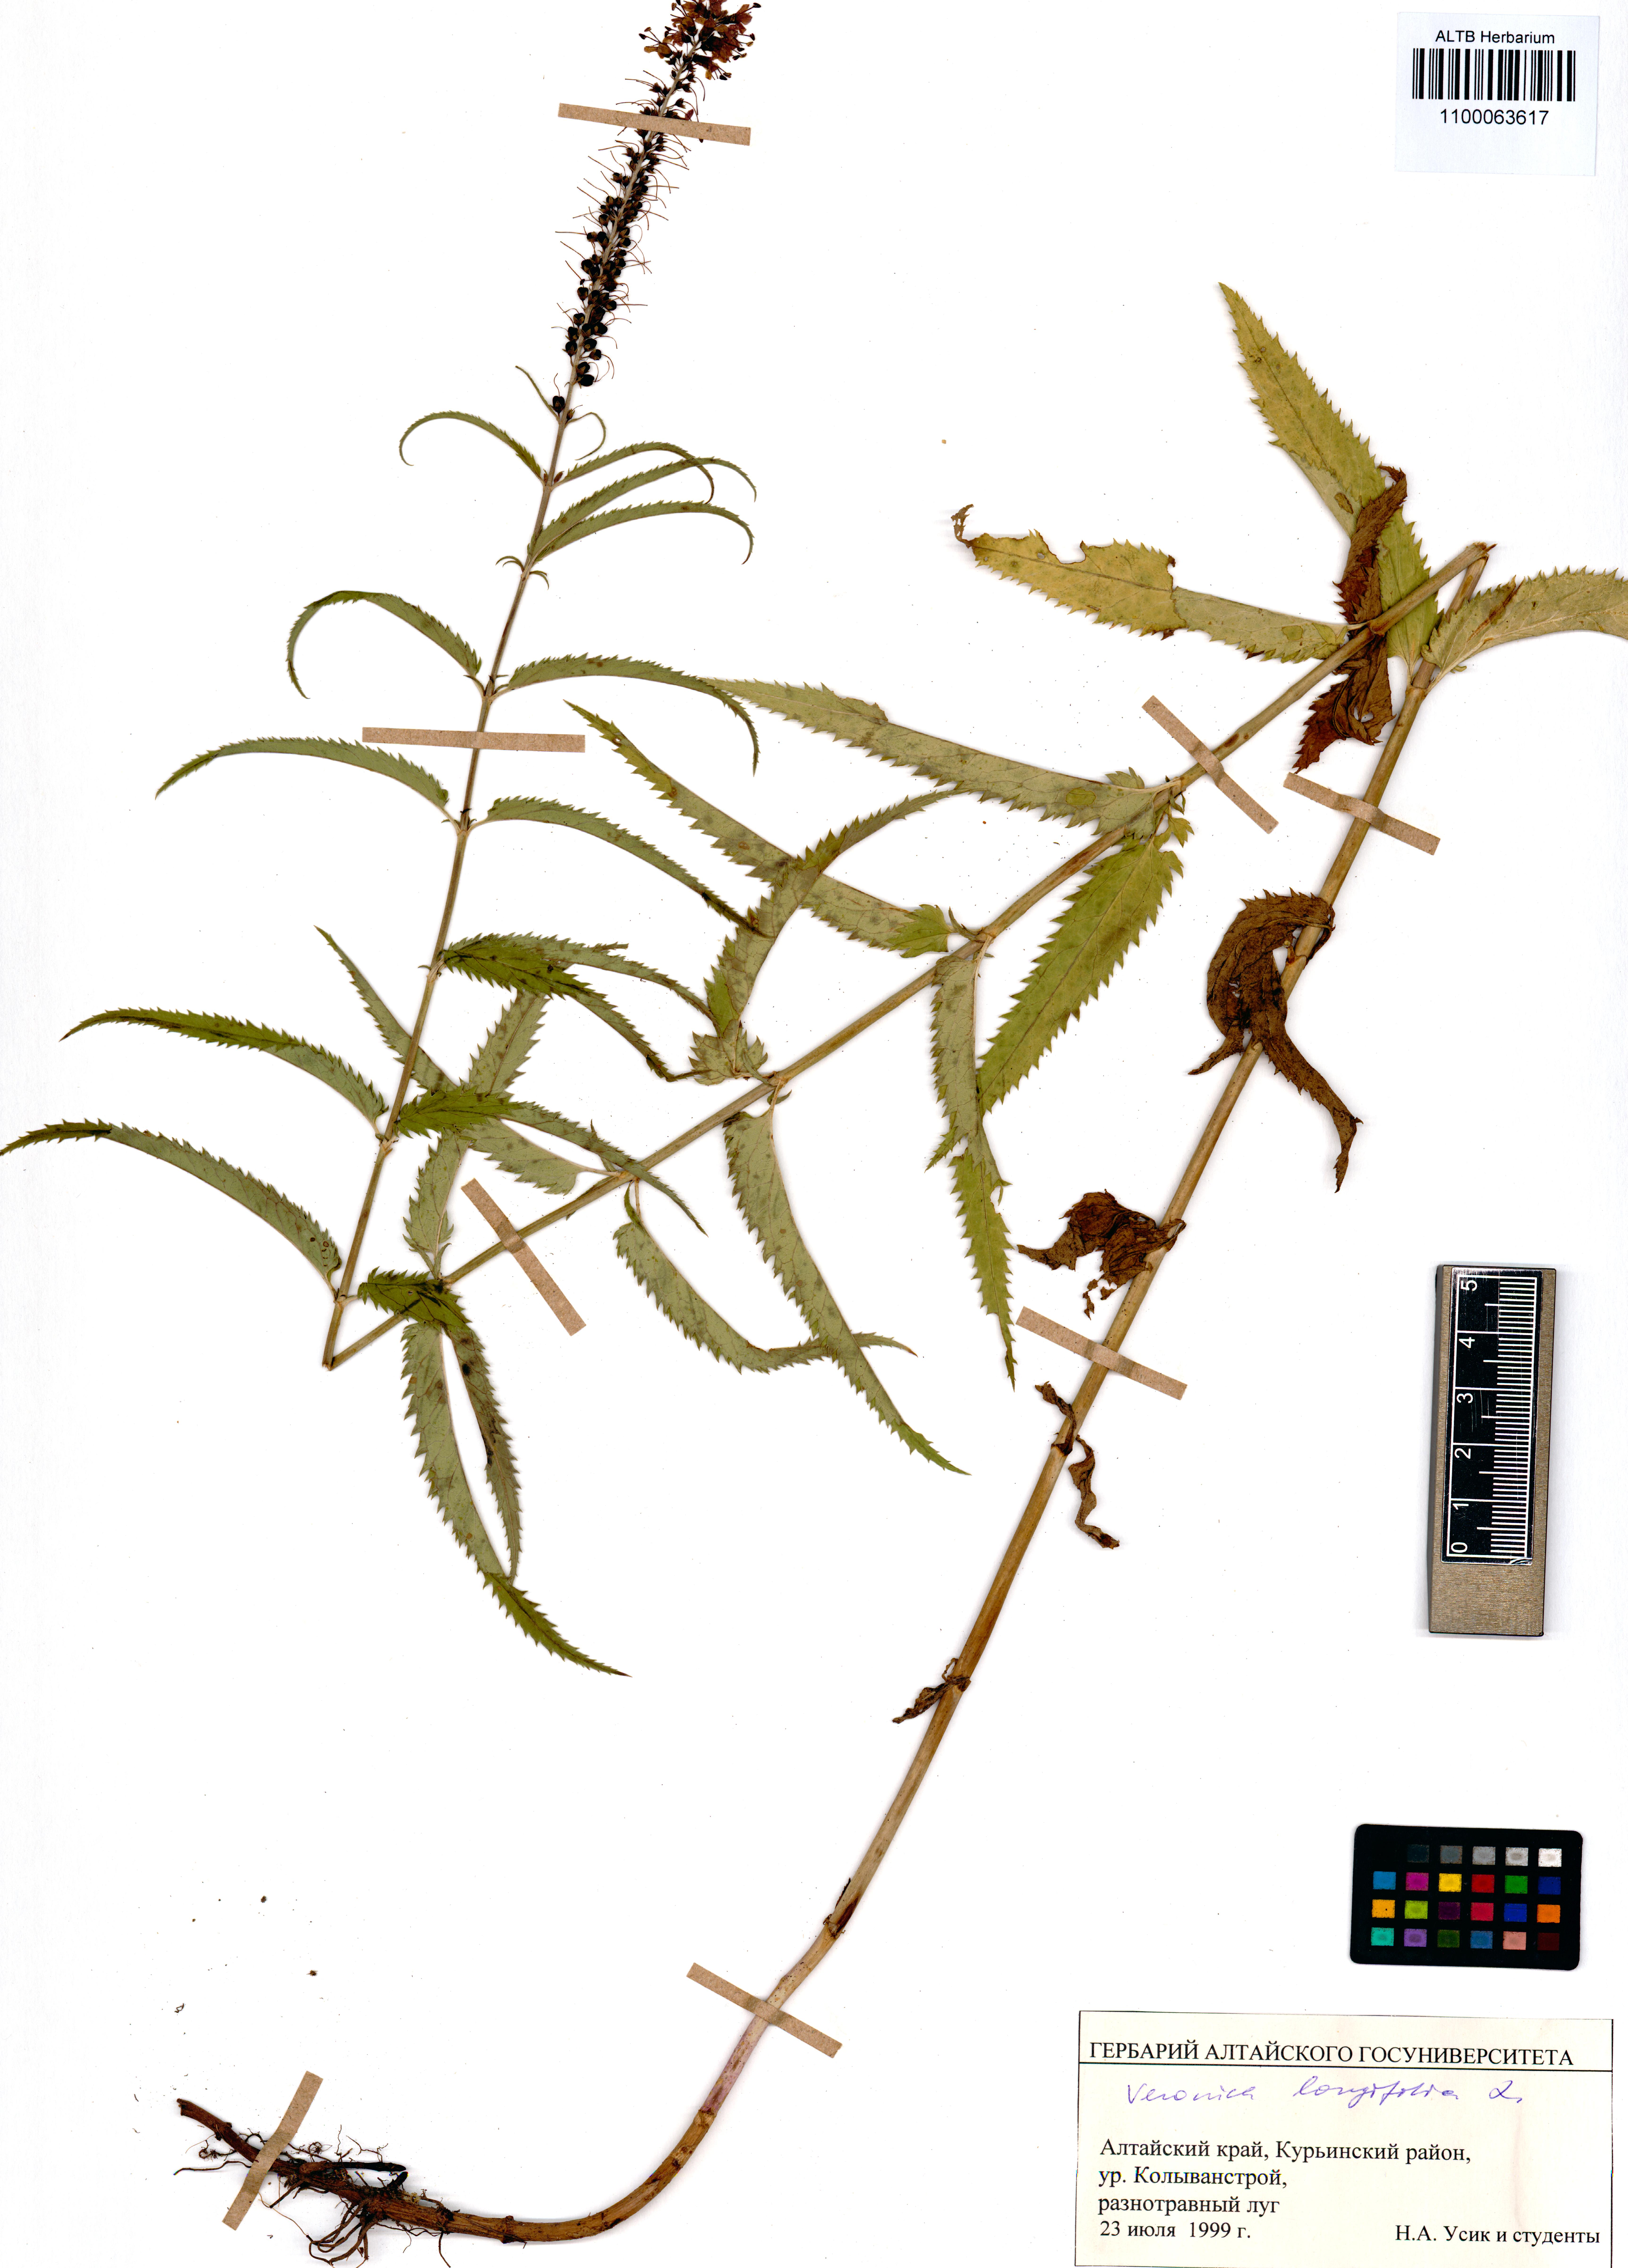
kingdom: Plantae
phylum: Tracheophyta
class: Magnoliopsida
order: Lamiales
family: Plantaginaceae
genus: Veronica
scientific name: Veronica longifolia
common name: Garden speedwell
